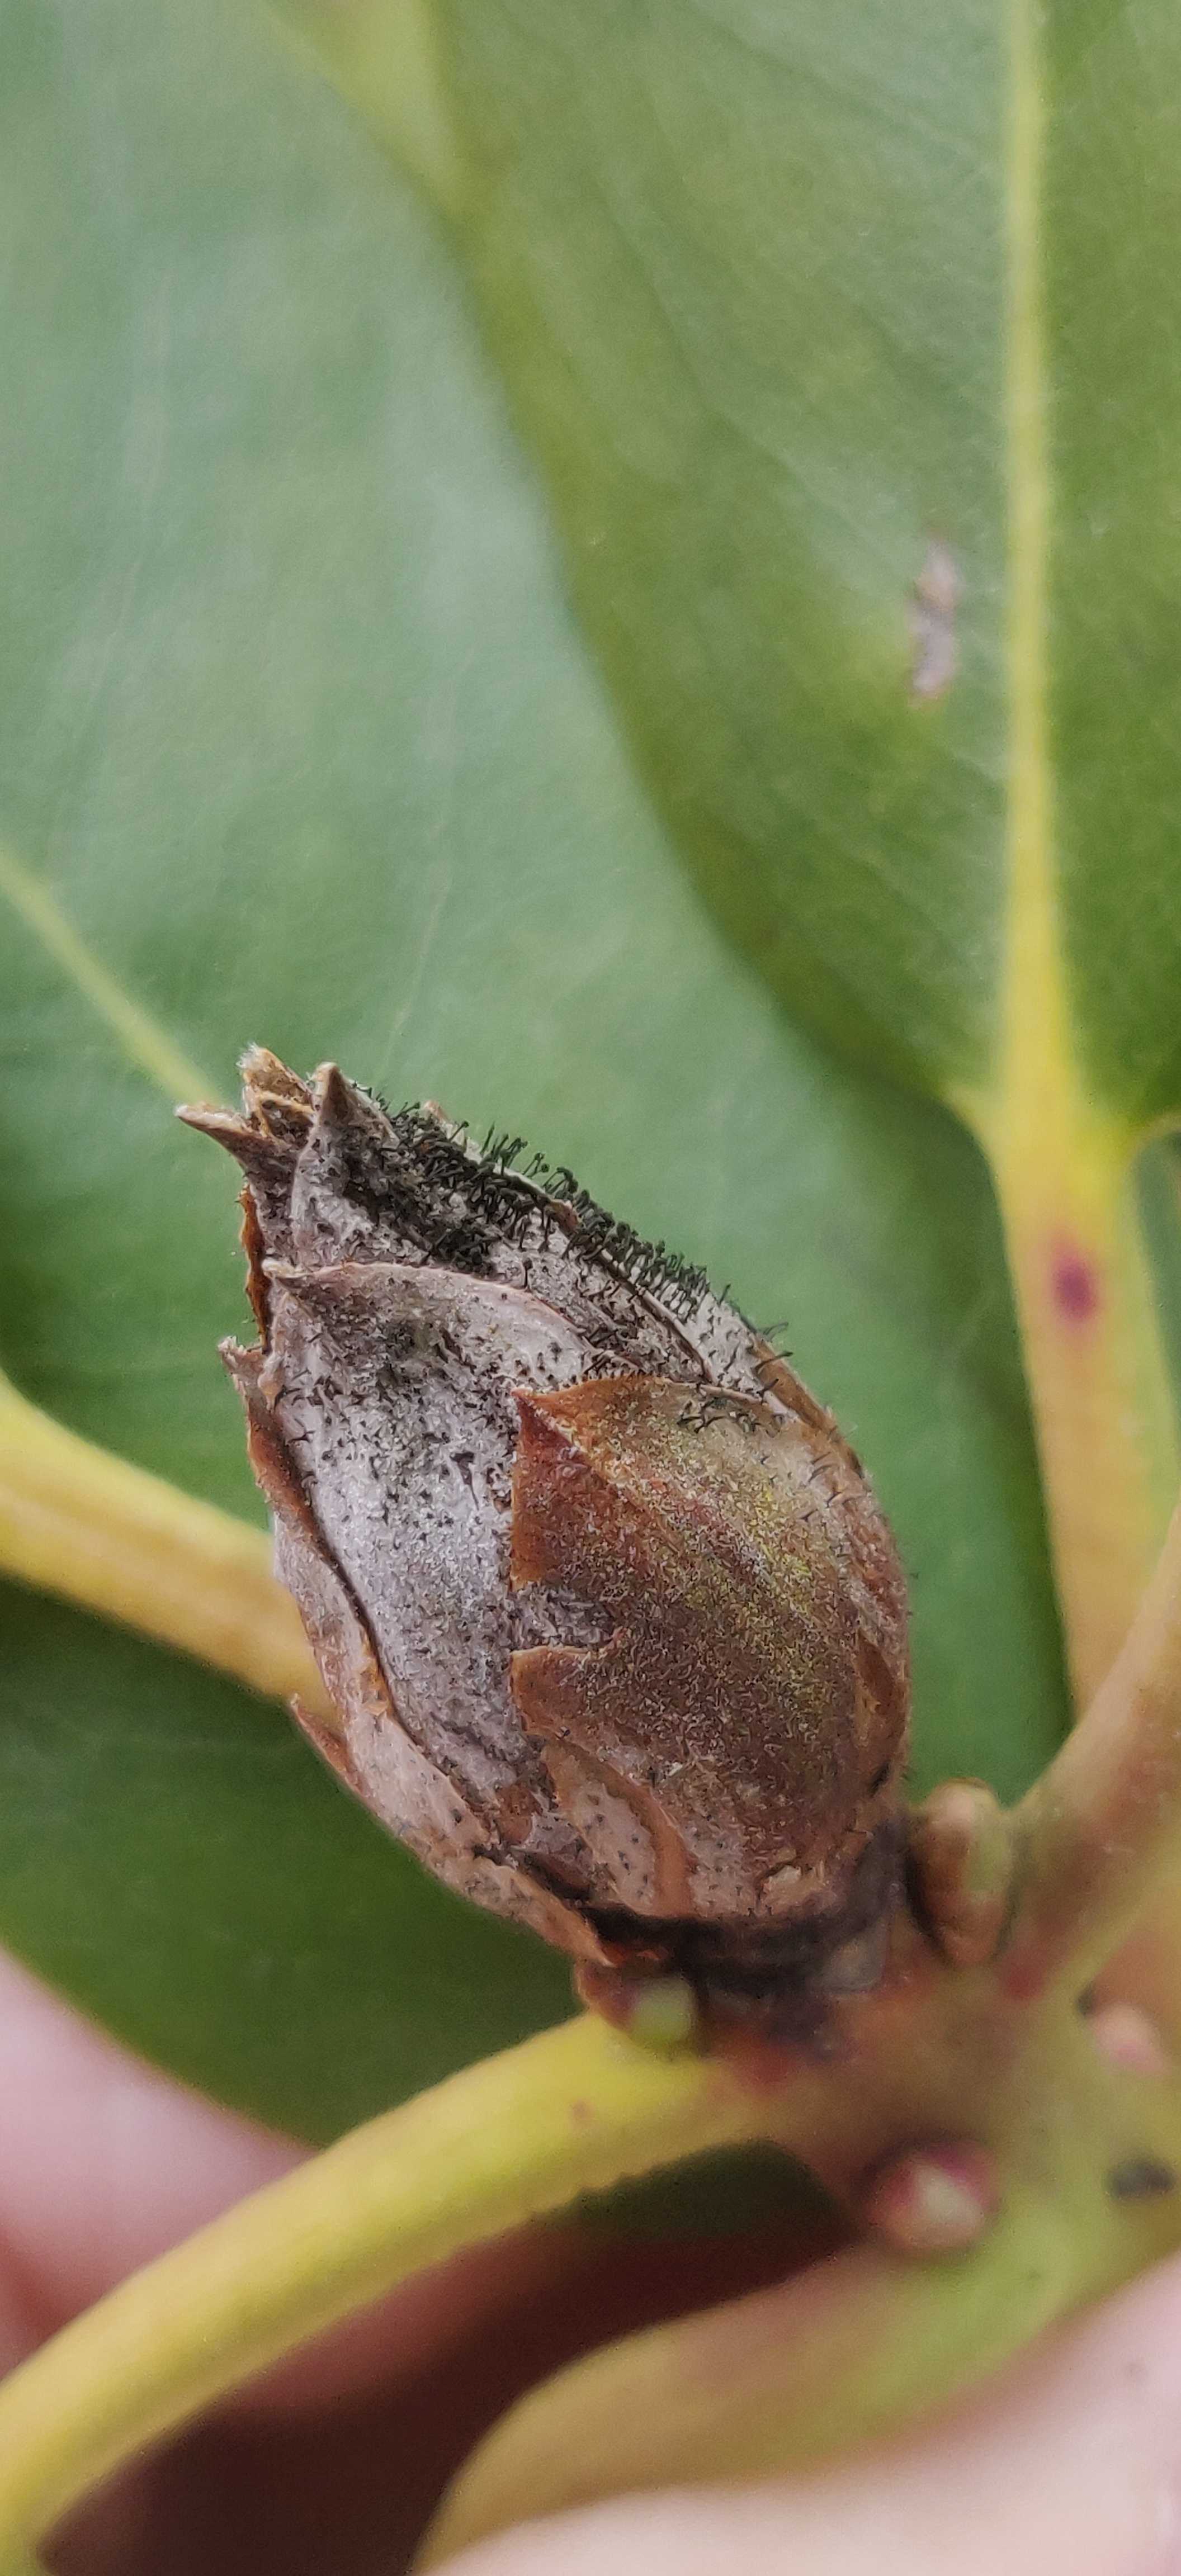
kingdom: Fungi
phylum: Ascomycota
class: Dothideomycetes
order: Pleosporales
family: Melanommataceae
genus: Seifertia
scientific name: Seifertia azaleae
